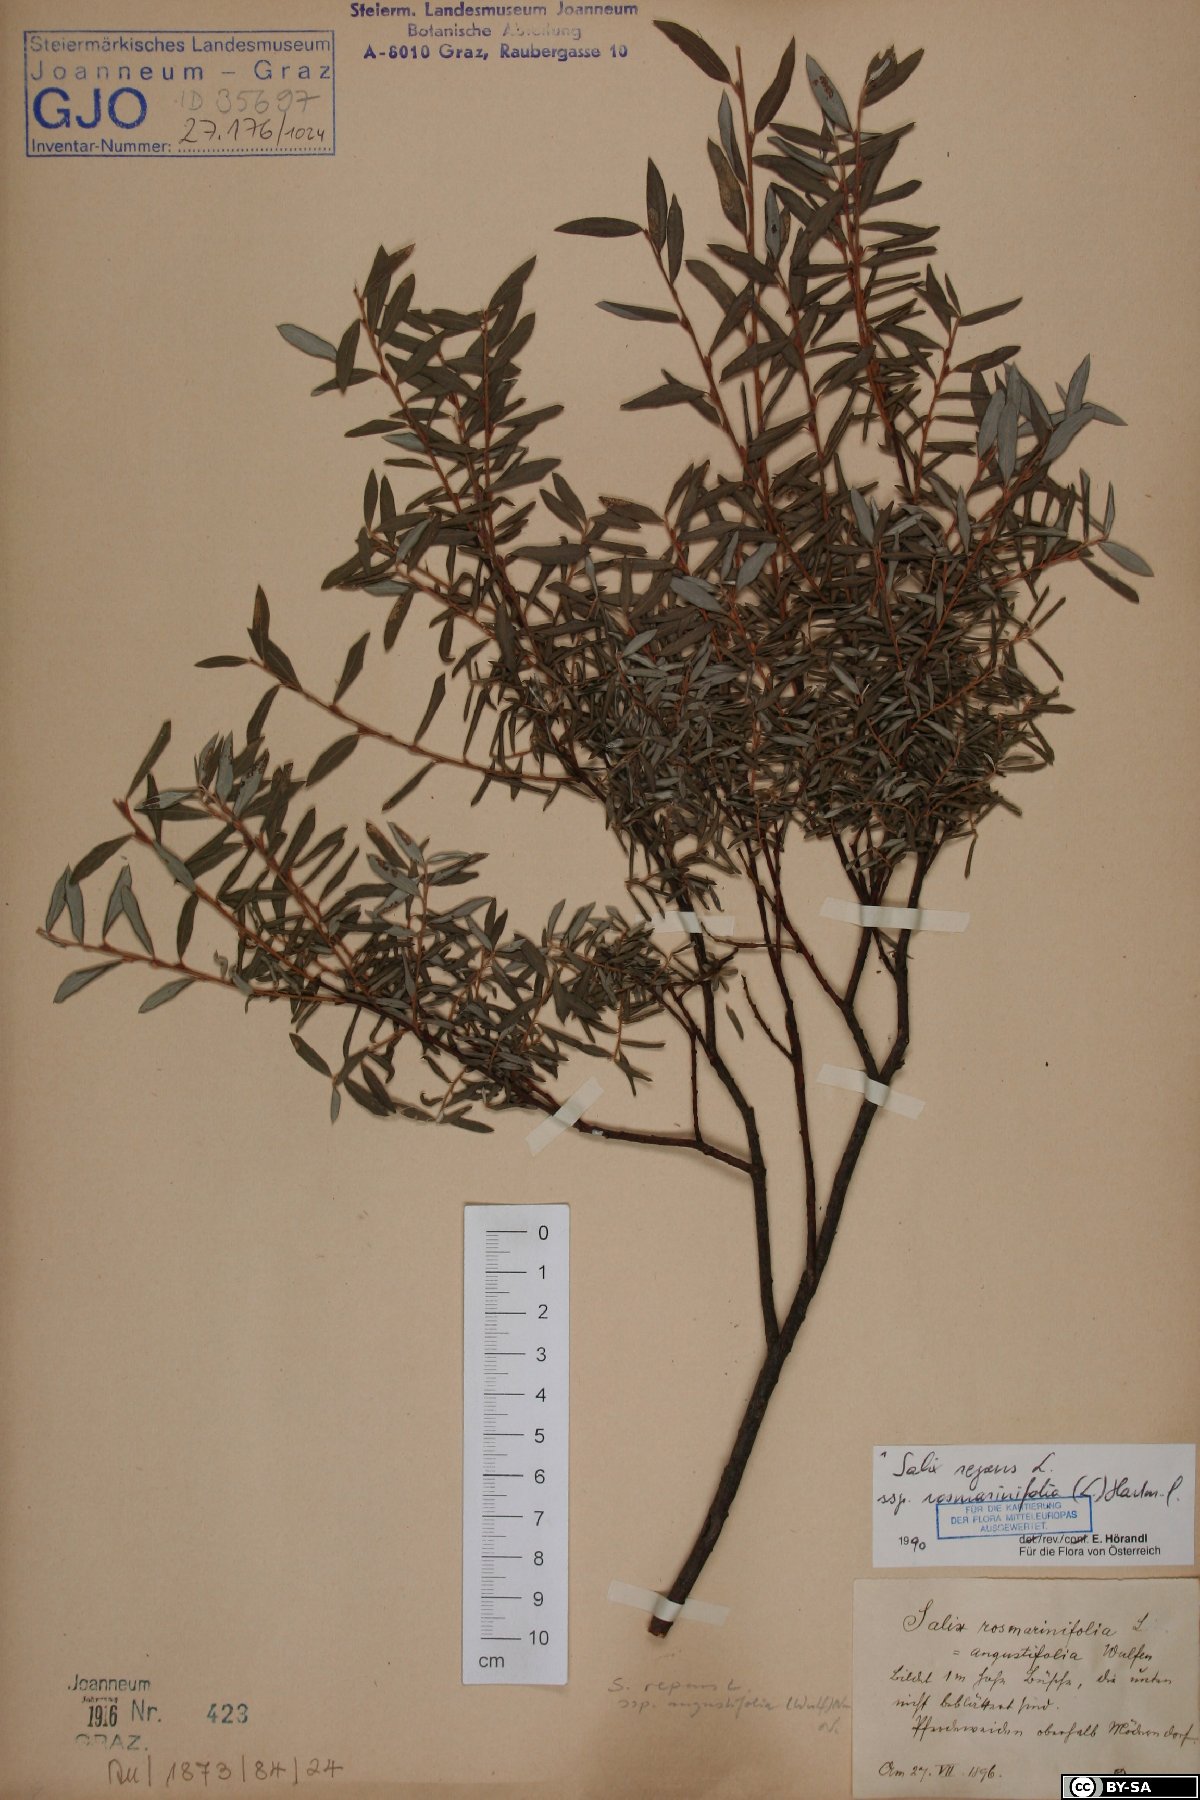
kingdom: Plantae
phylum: Tracheophyta
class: Magnoliopsida
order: Malpighiales
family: Salicaceae
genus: Salix
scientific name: Salix repens
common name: Creeping willow
